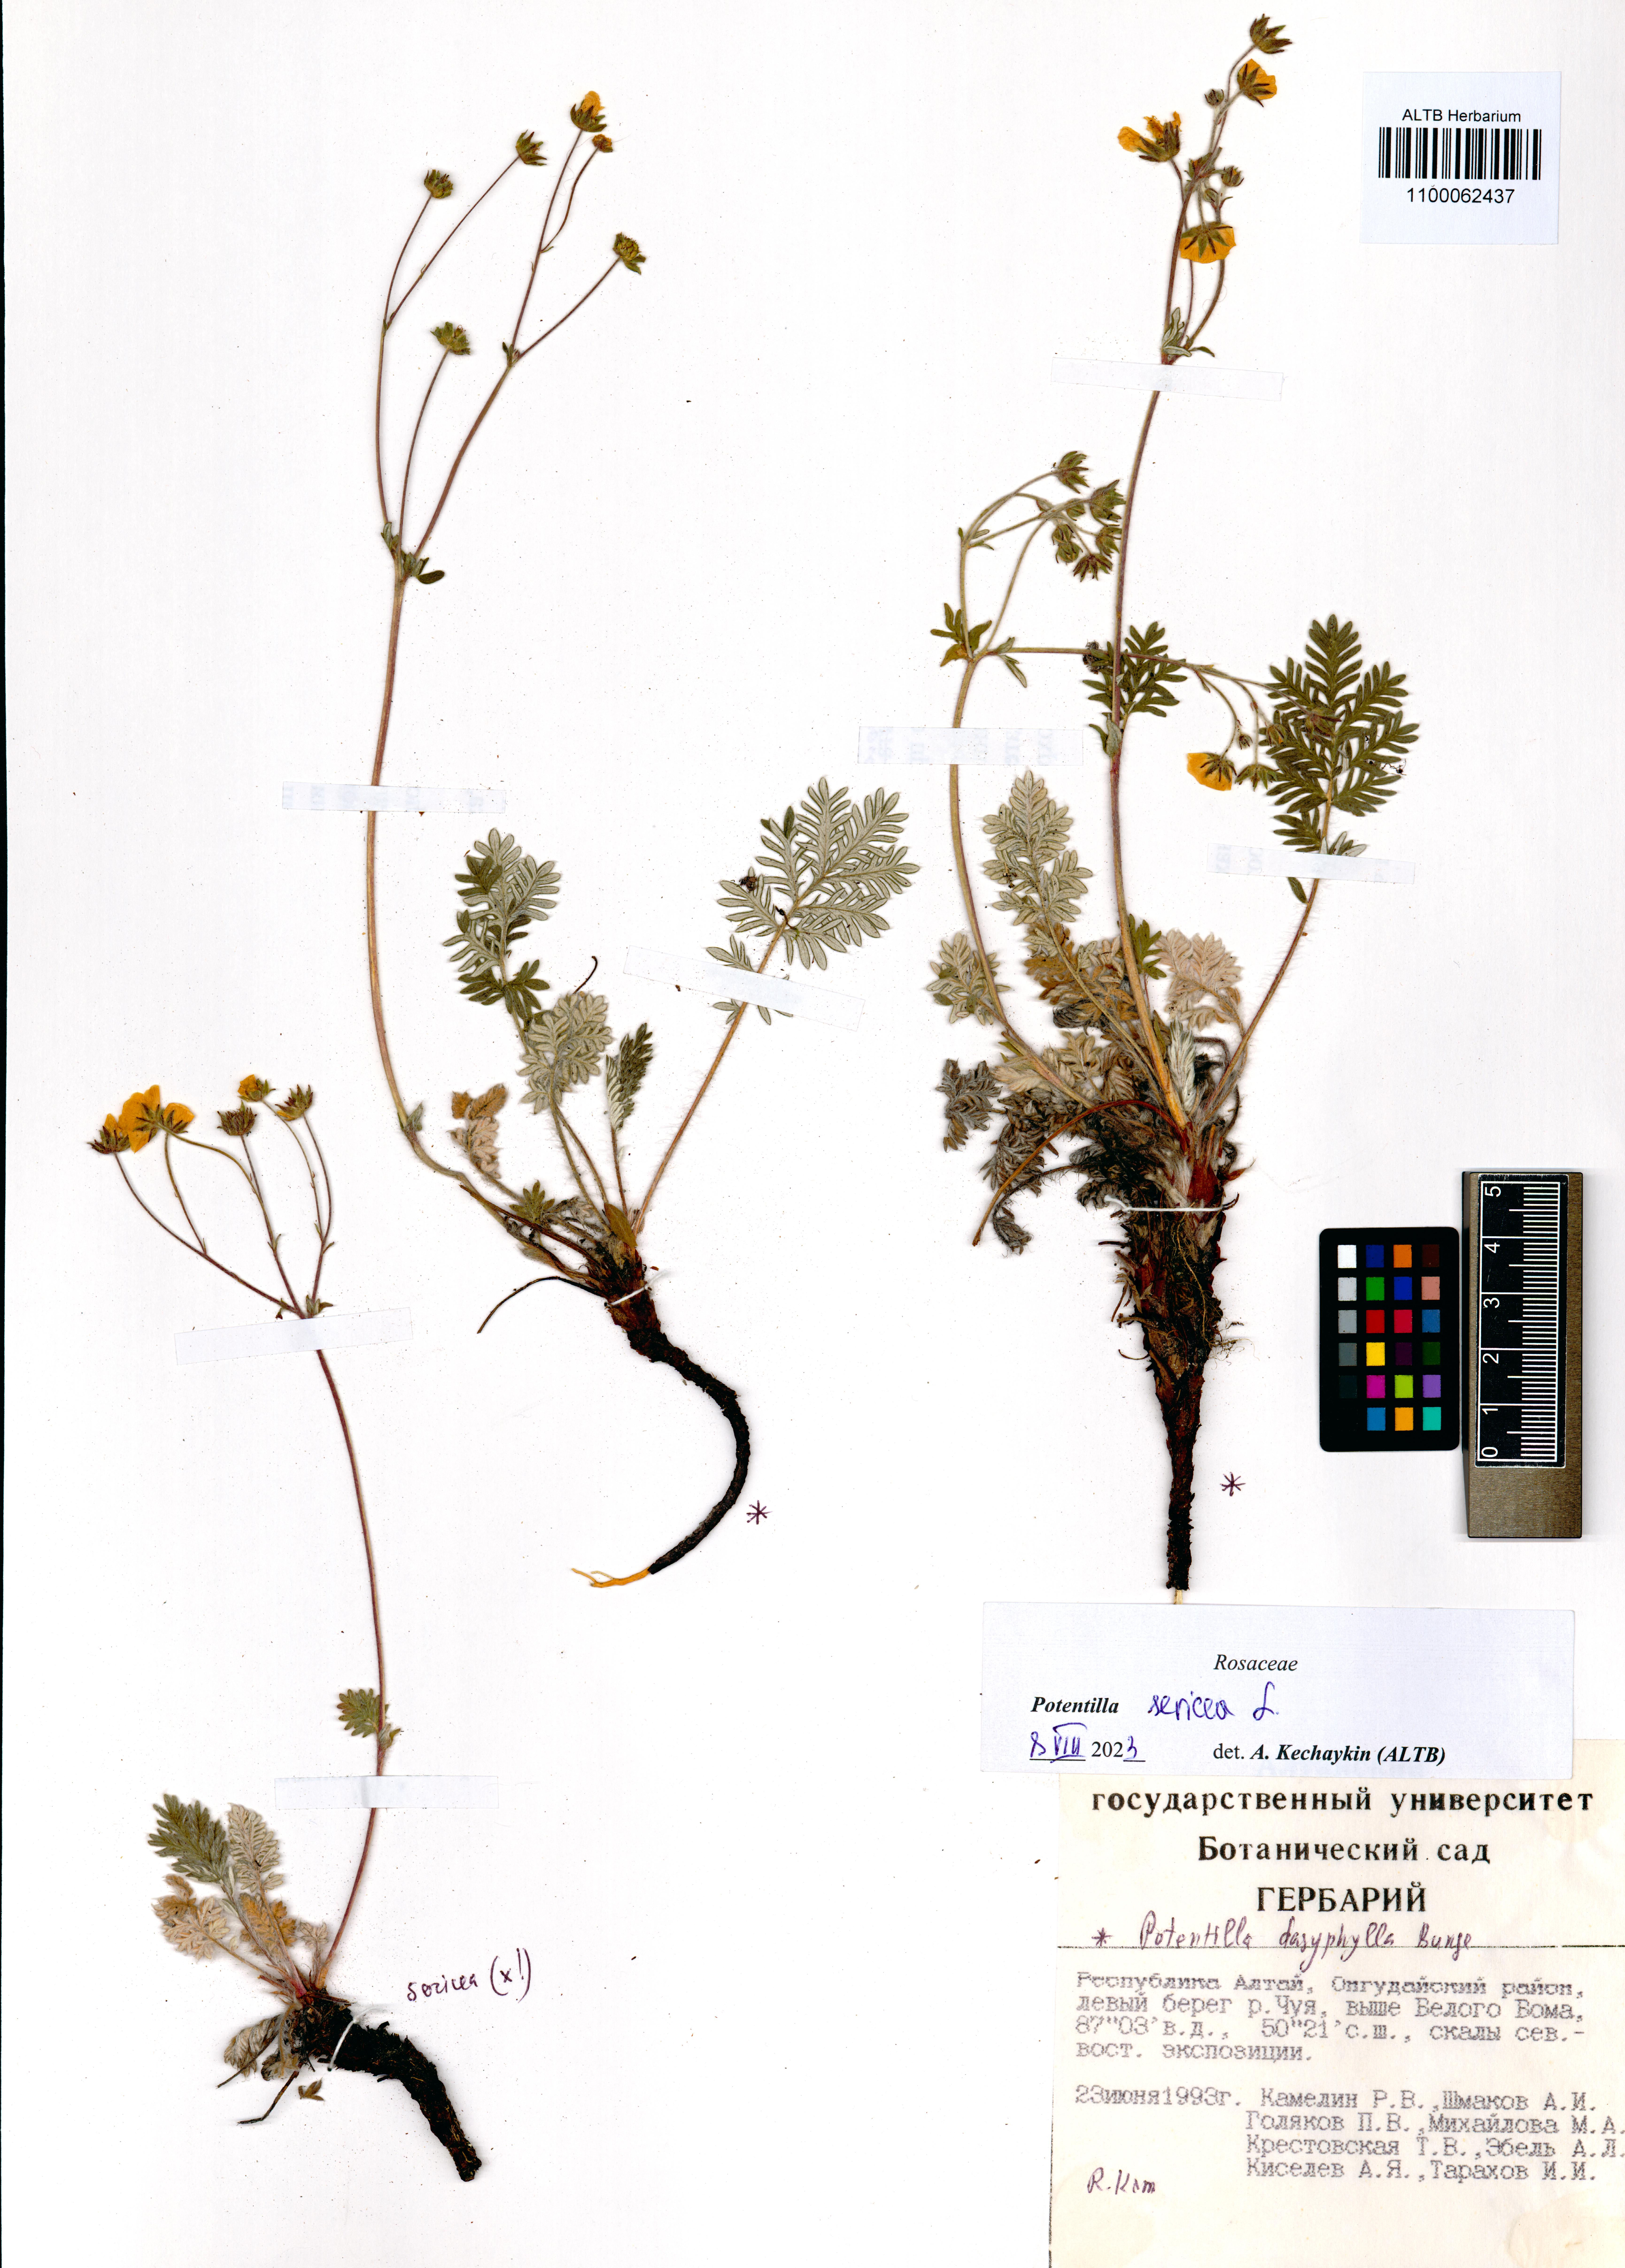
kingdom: Plantae
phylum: Tracheophyta
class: Magnoliopsida
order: Rosales
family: Rosaceae
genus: Potentilla
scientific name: Potentilla sericea
